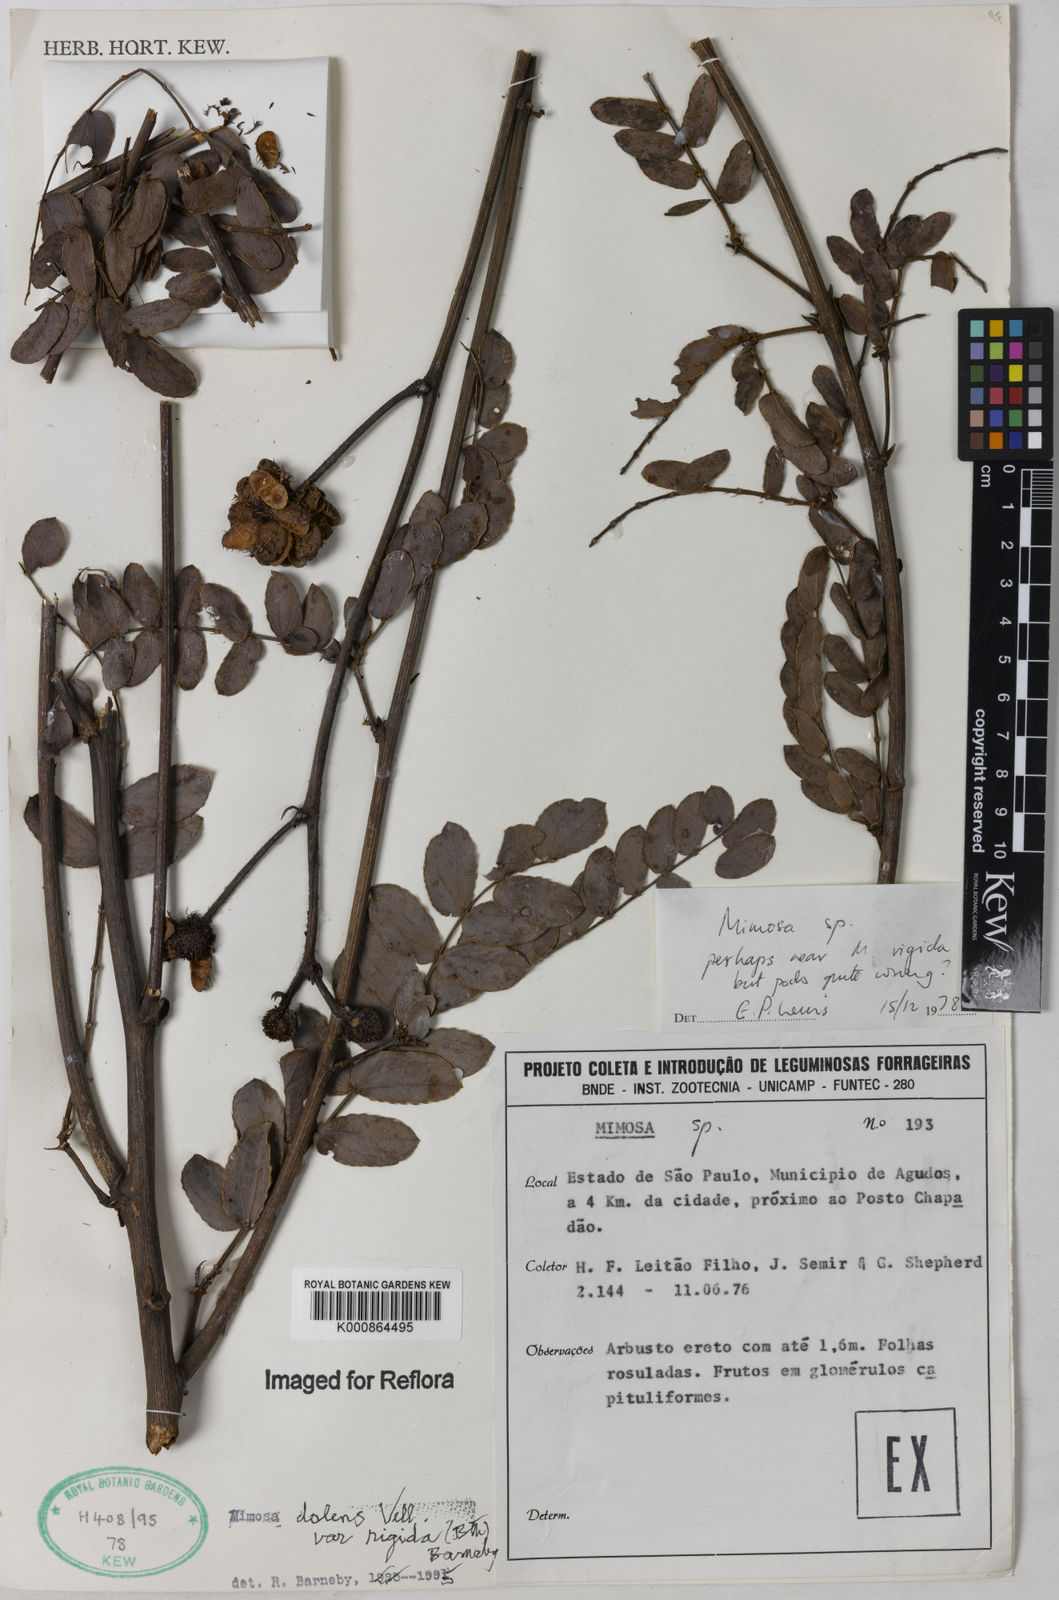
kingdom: Plantae
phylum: Tracheophyta
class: Magnoliopsida
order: Fabales
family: Fabaceae
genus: Mimosa
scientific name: Mimosa dolens
